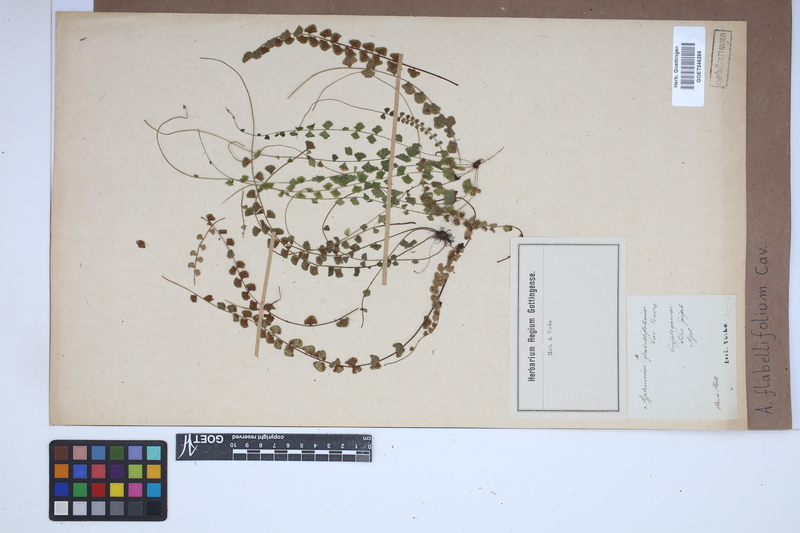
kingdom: Plantae
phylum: Tracheophyta
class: Polypodiopsida
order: Polypodiales
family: Aspleniaceae
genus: Asplenium
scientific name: Asplenium flabellifolium
